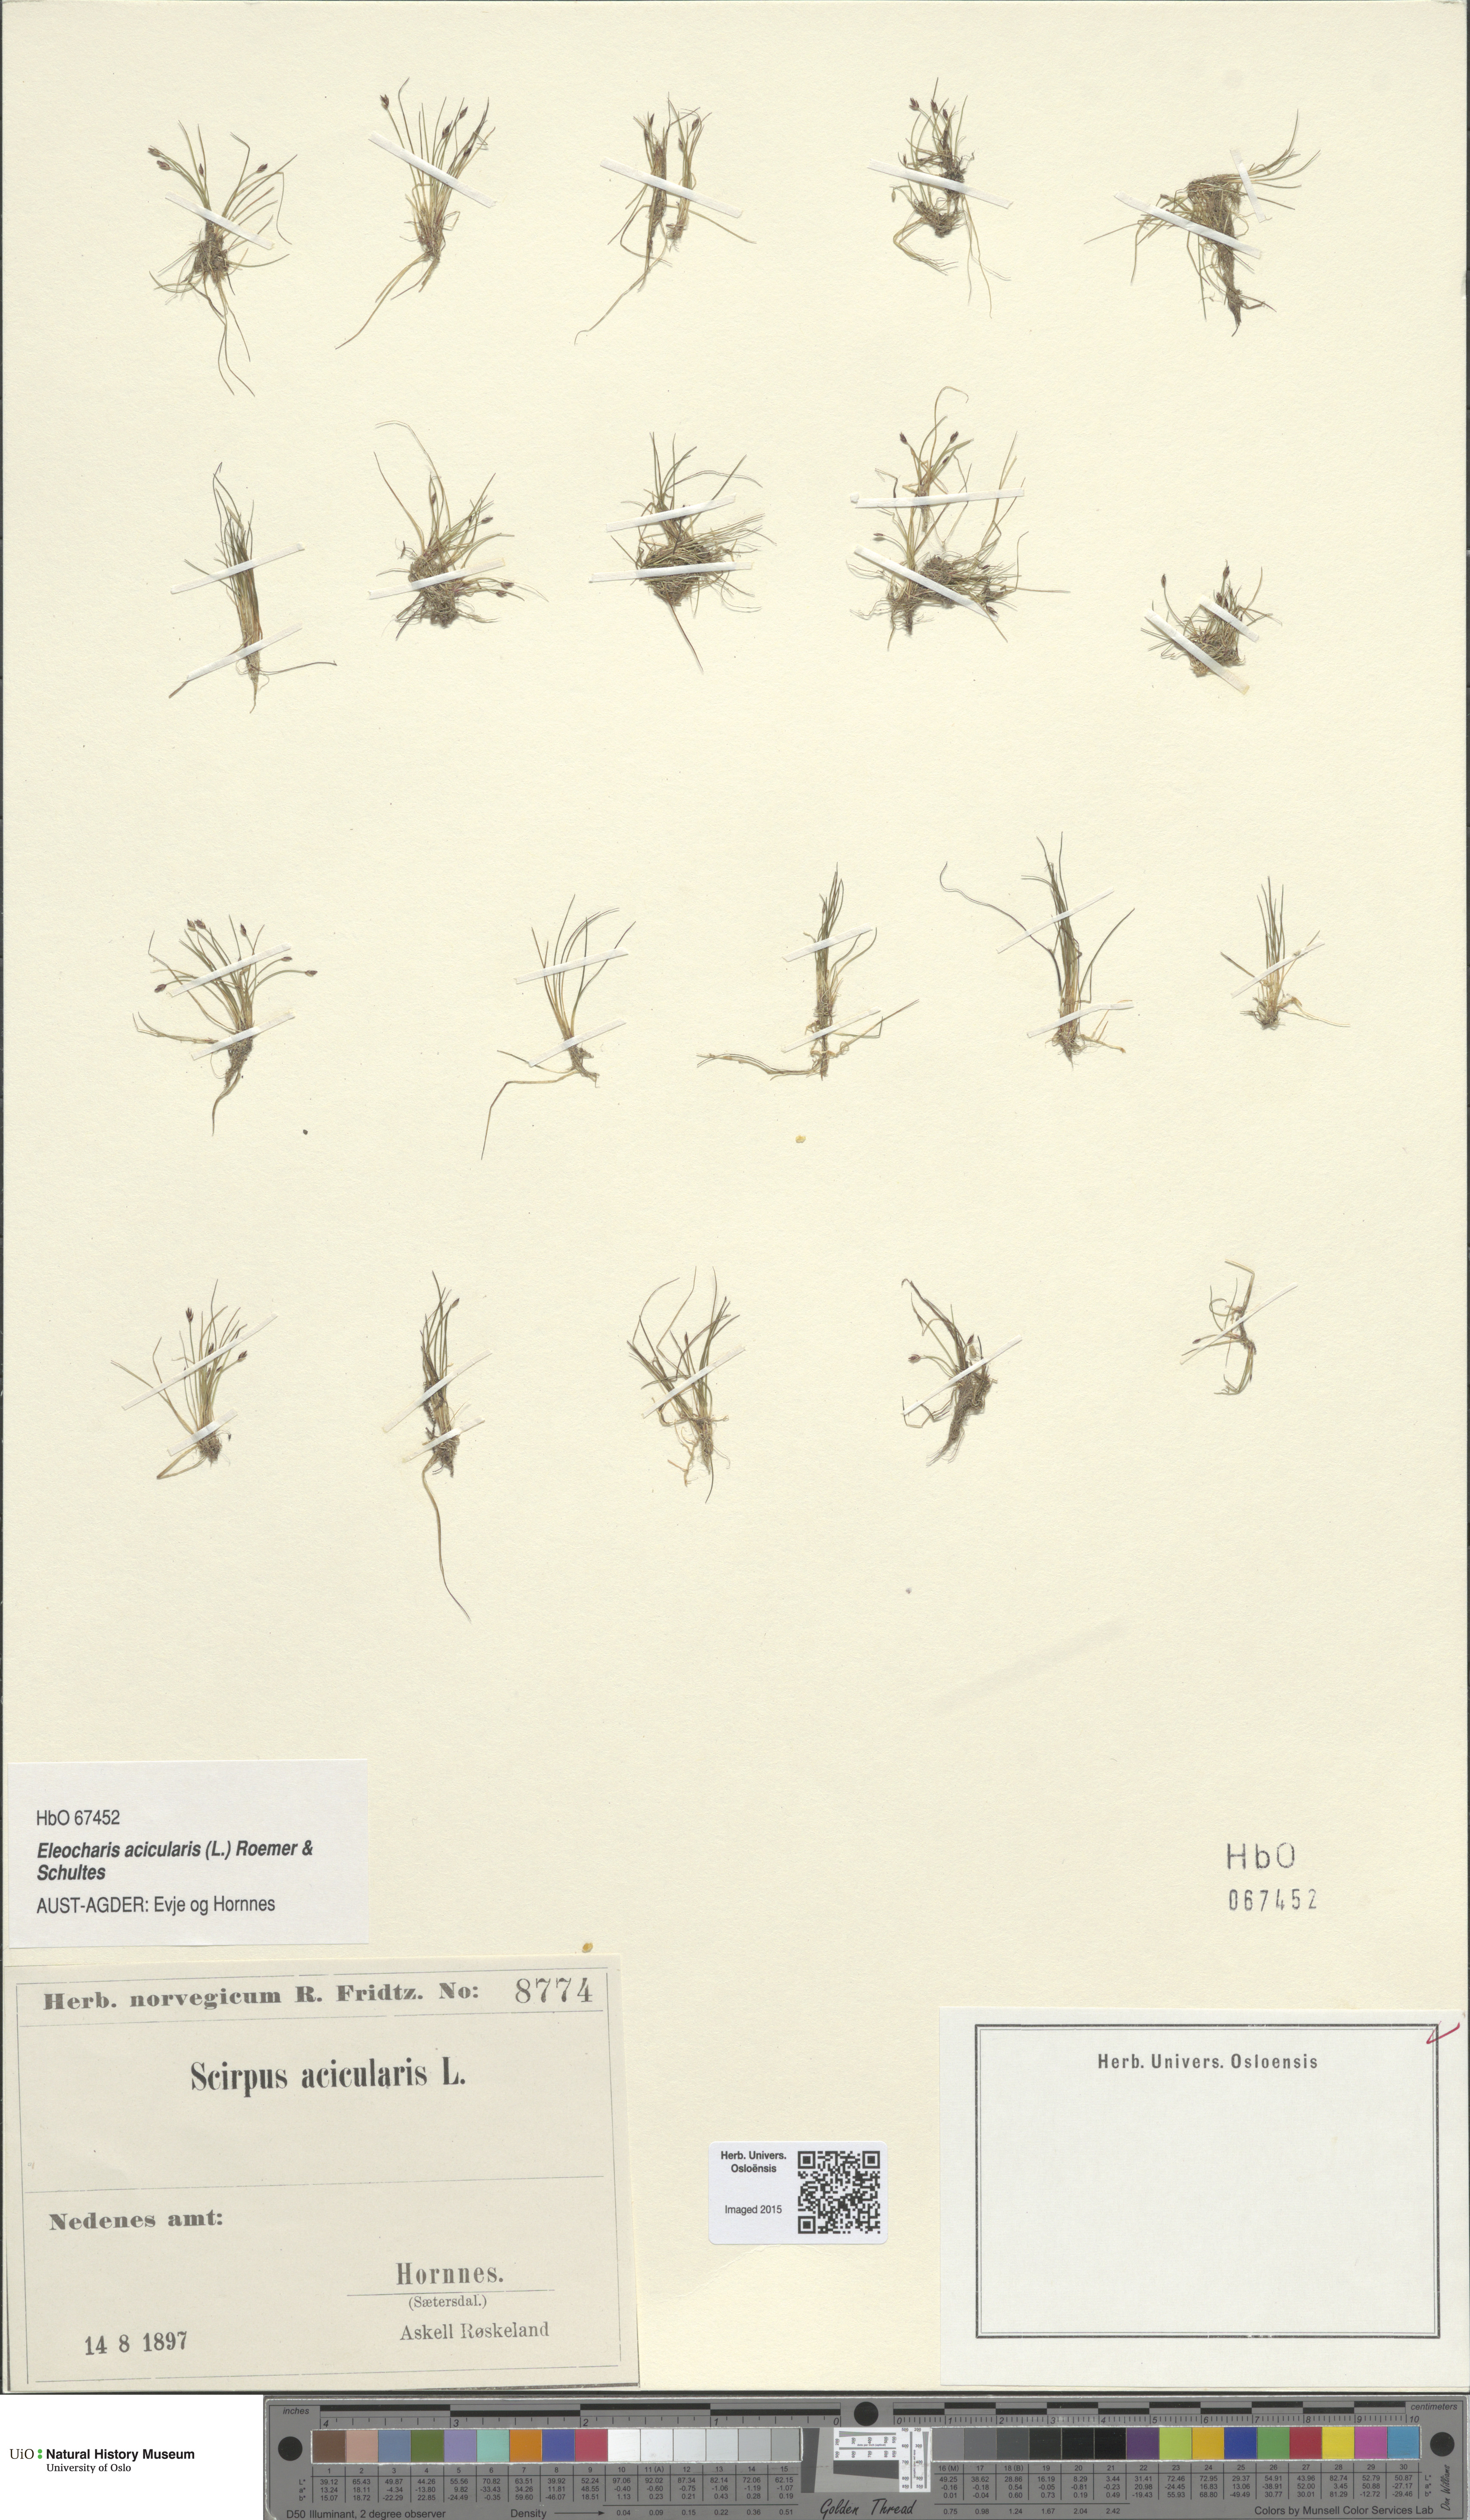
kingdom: Plantae
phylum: Tracheophyta
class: Liliopsida
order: Poales
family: Cyperaceae
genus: Eleocharis
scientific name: Eleocharis acicularis
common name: Needle spike-rush
